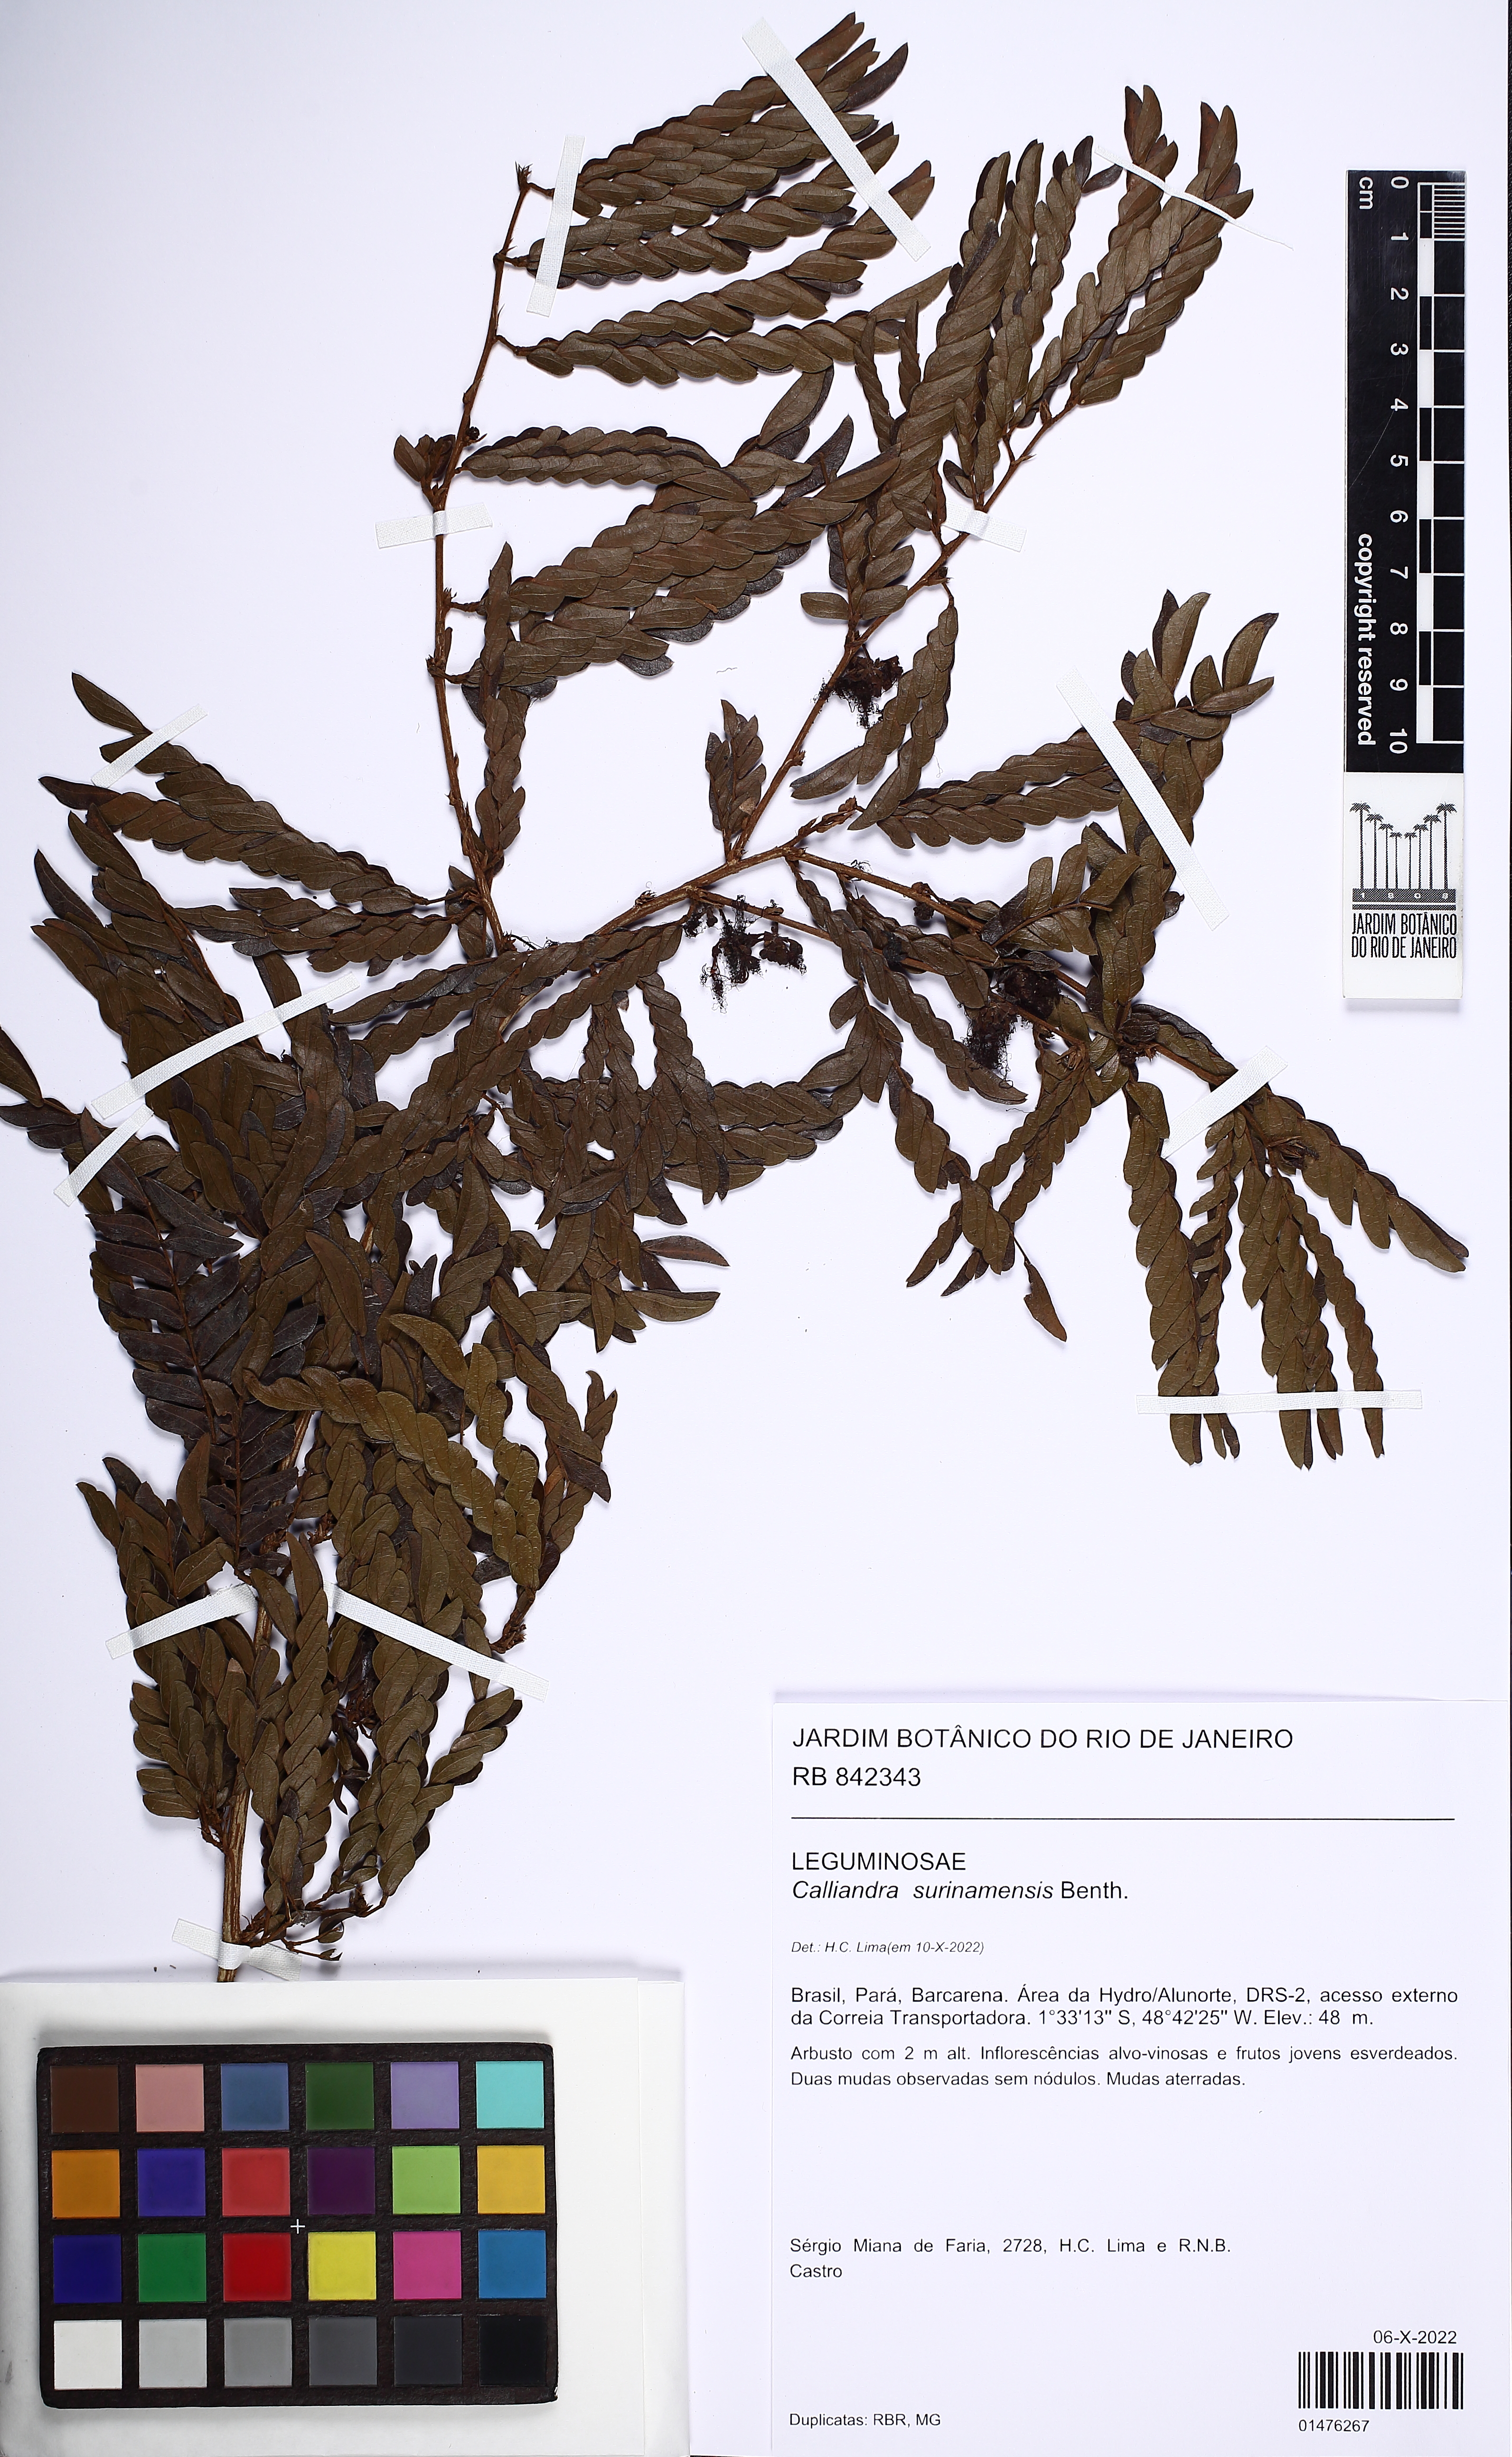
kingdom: Plantae
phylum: Tracheophyta
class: Magnoliopsida
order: Fabales
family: Fabaceae
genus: Calliandra
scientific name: Calliandra surinamensis
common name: Pink powder puff
